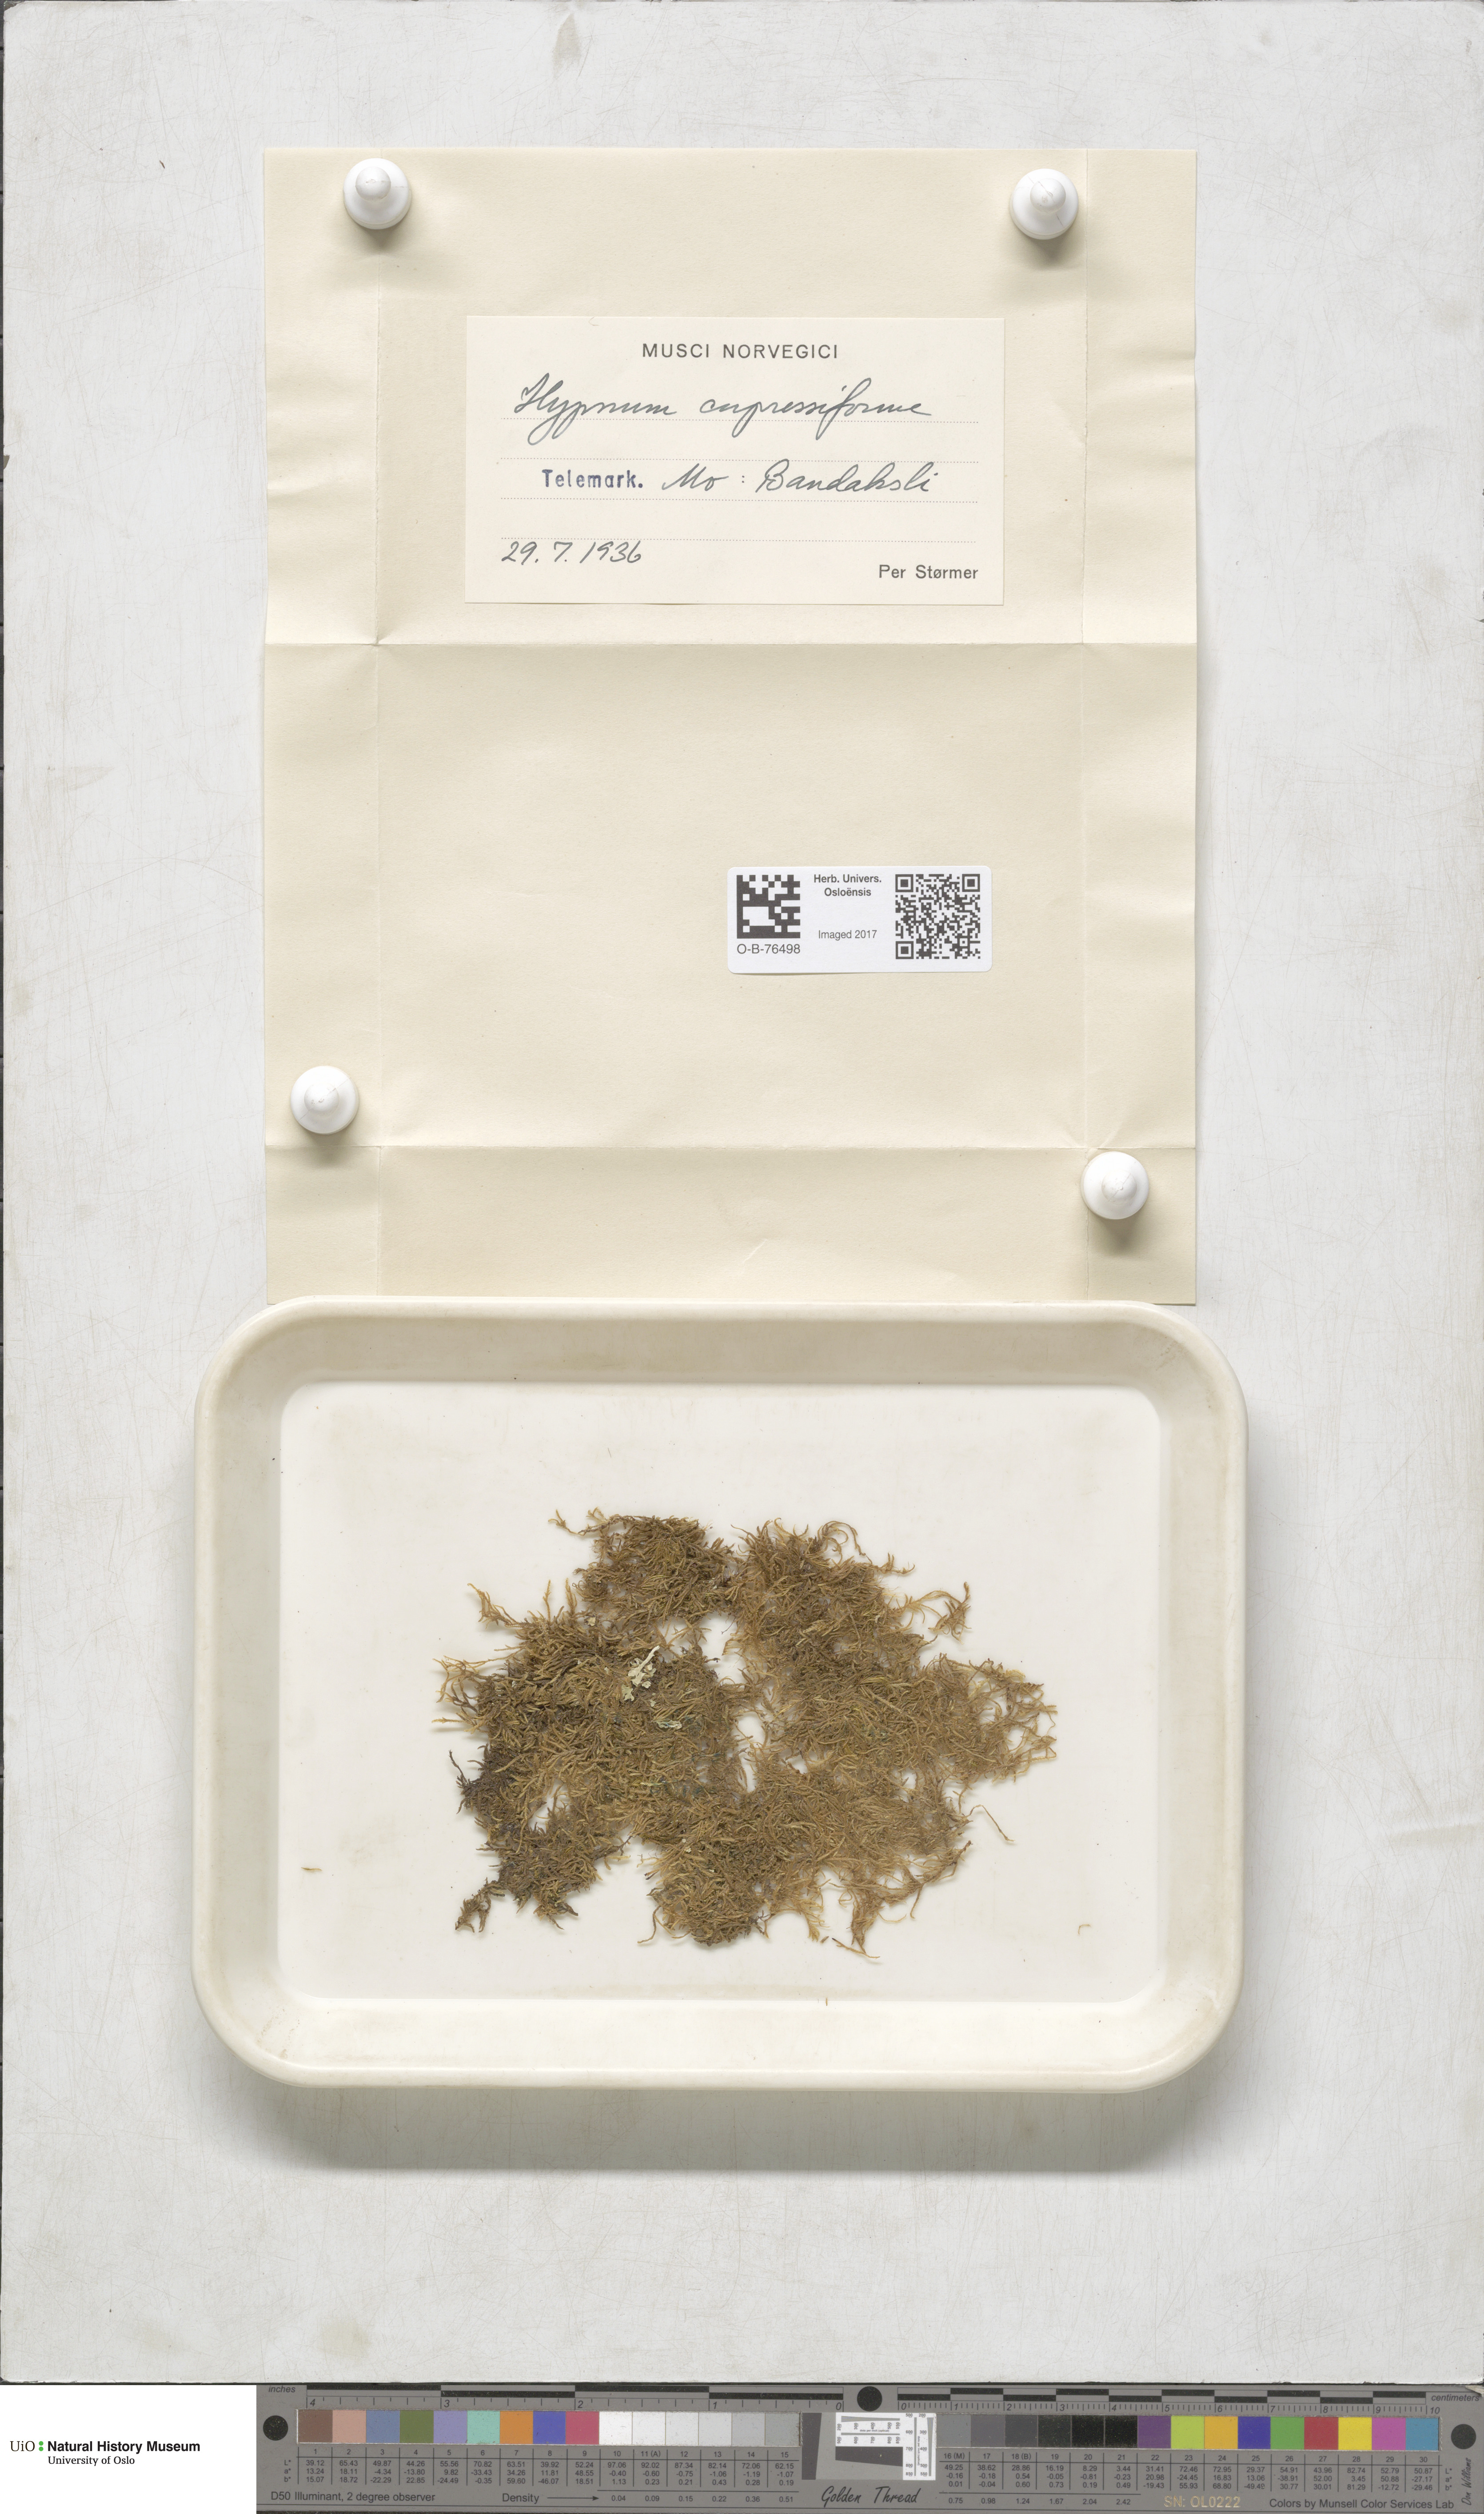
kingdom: Plantae
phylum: Bryophyta
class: Bryopsida
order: Hypnales
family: Hypnaceae
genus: Hypnum
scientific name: Hypnum cupressiforme
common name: Cypress-leaved plait-moss
